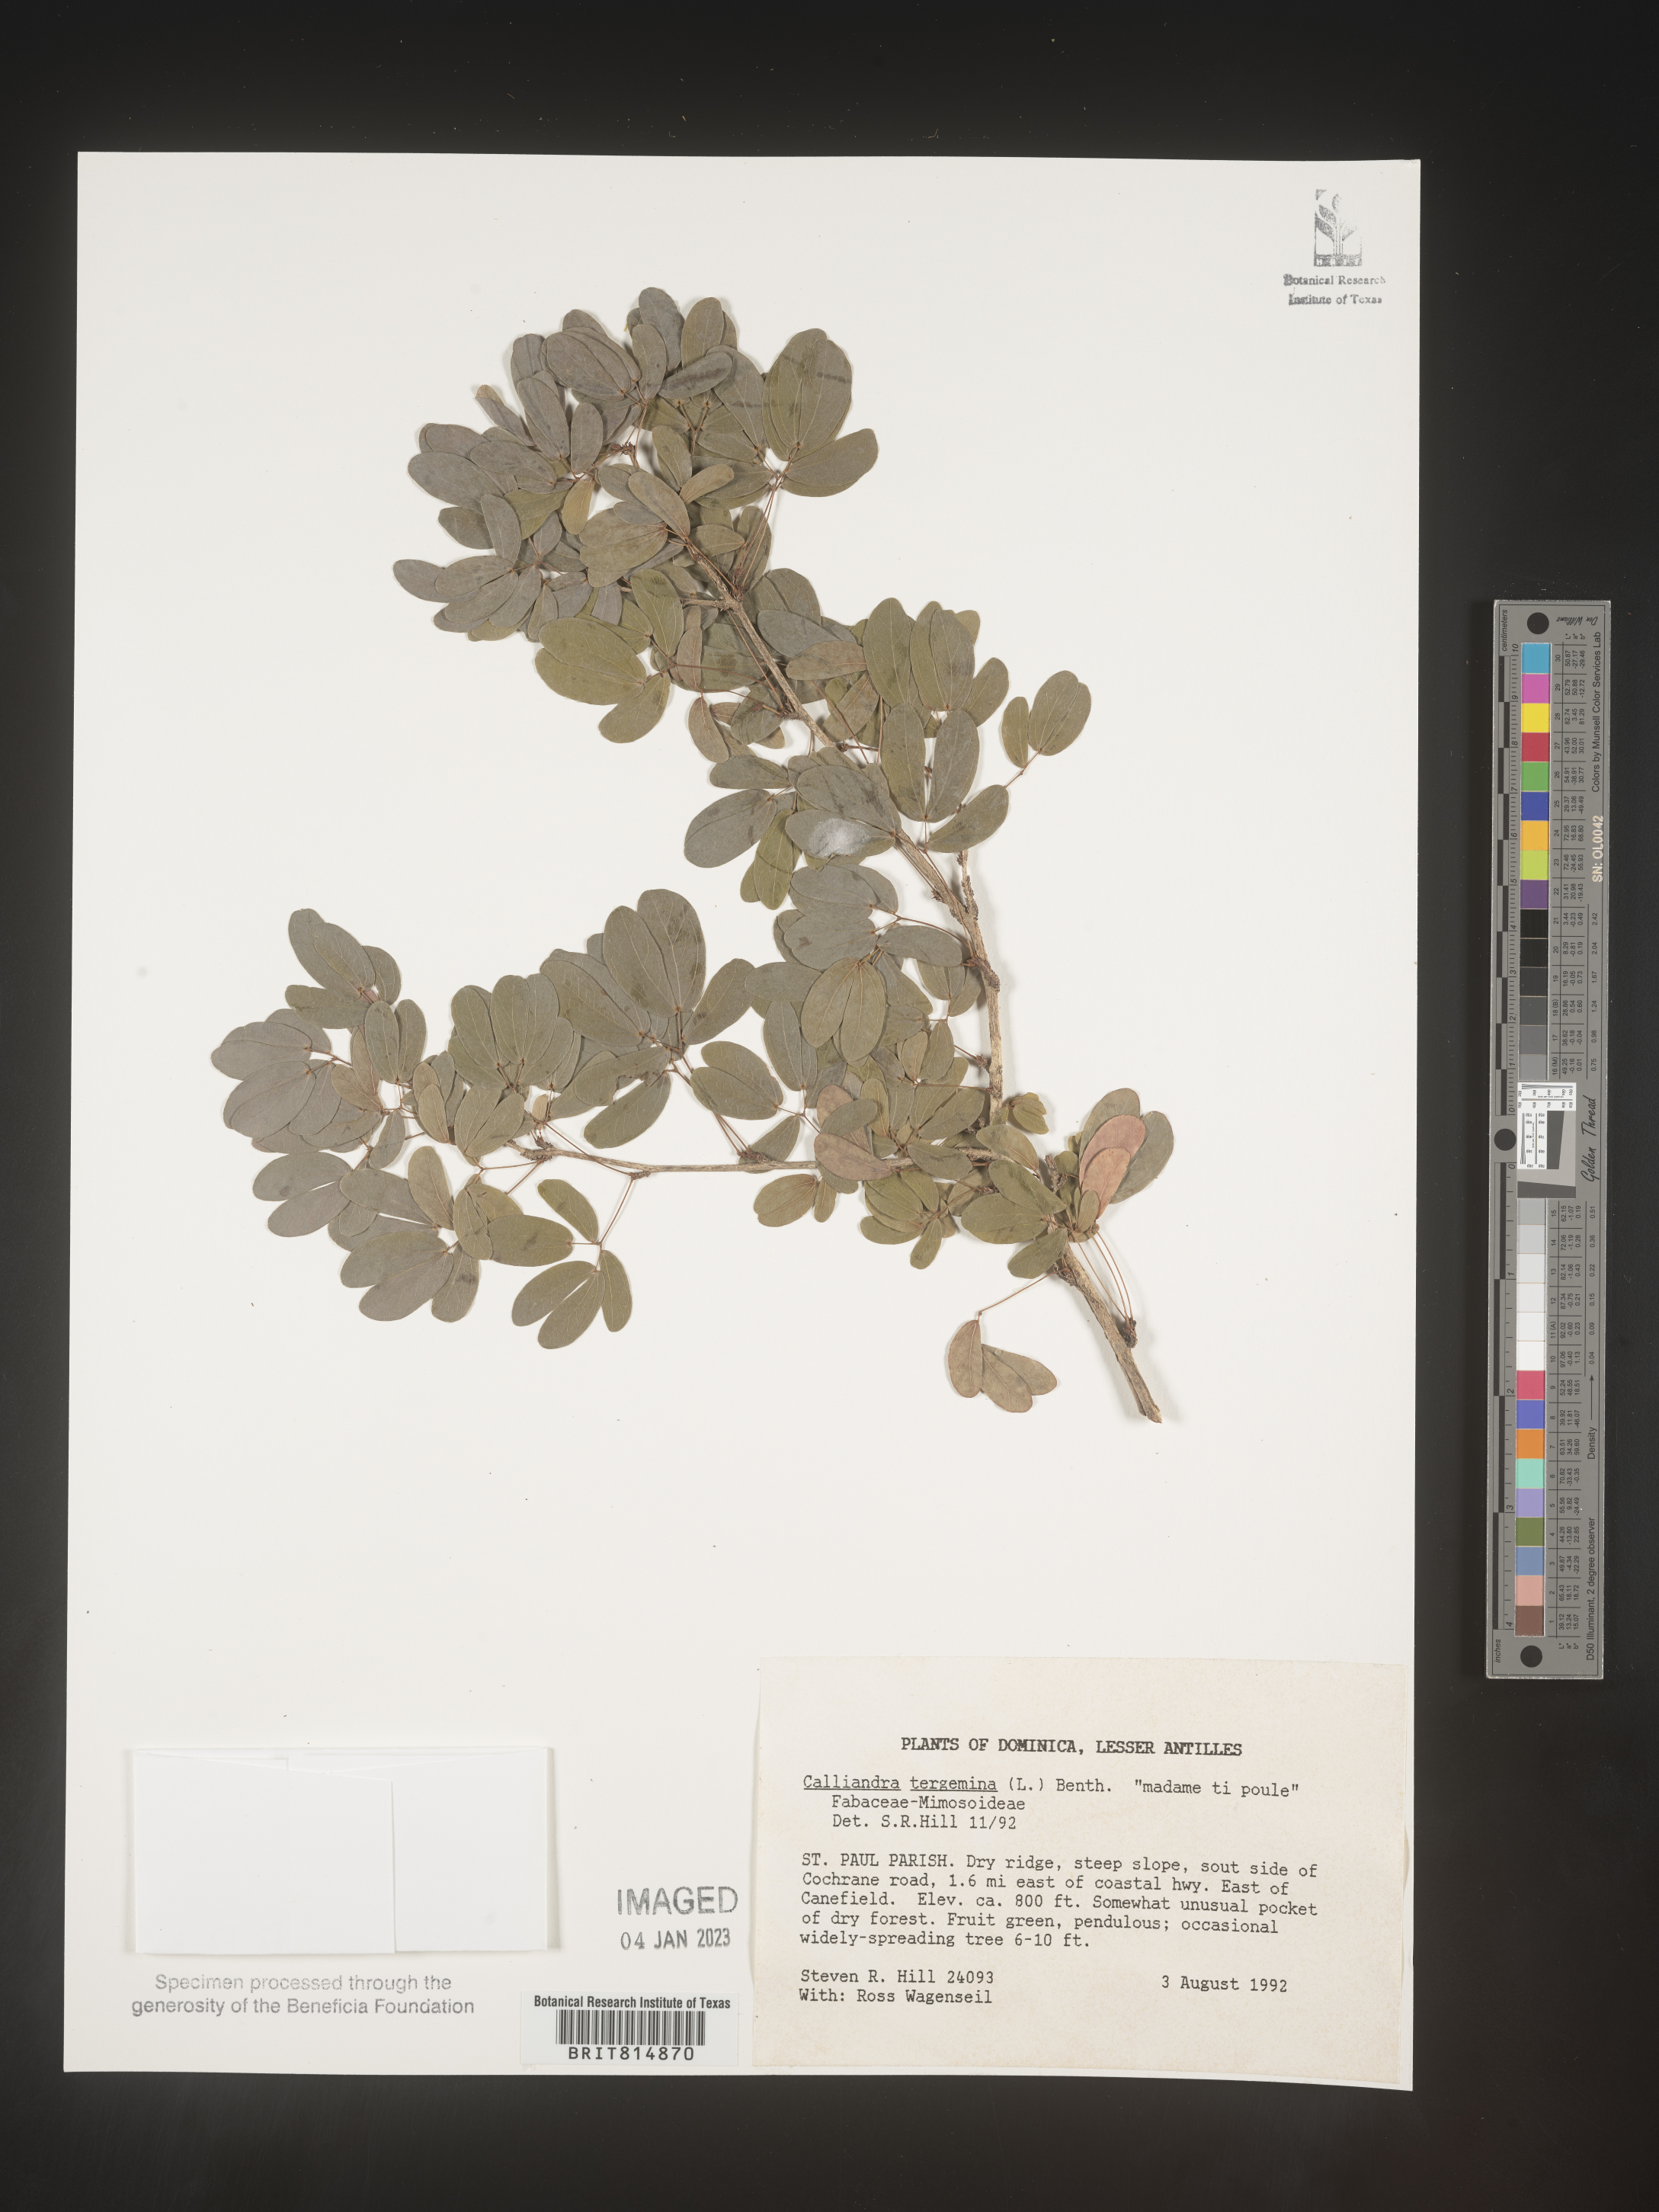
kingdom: Plantae
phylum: Tracheophyta
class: Magnoliopsida
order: Fabales
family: Fabaceae
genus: Calliandra
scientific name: Calliandra
